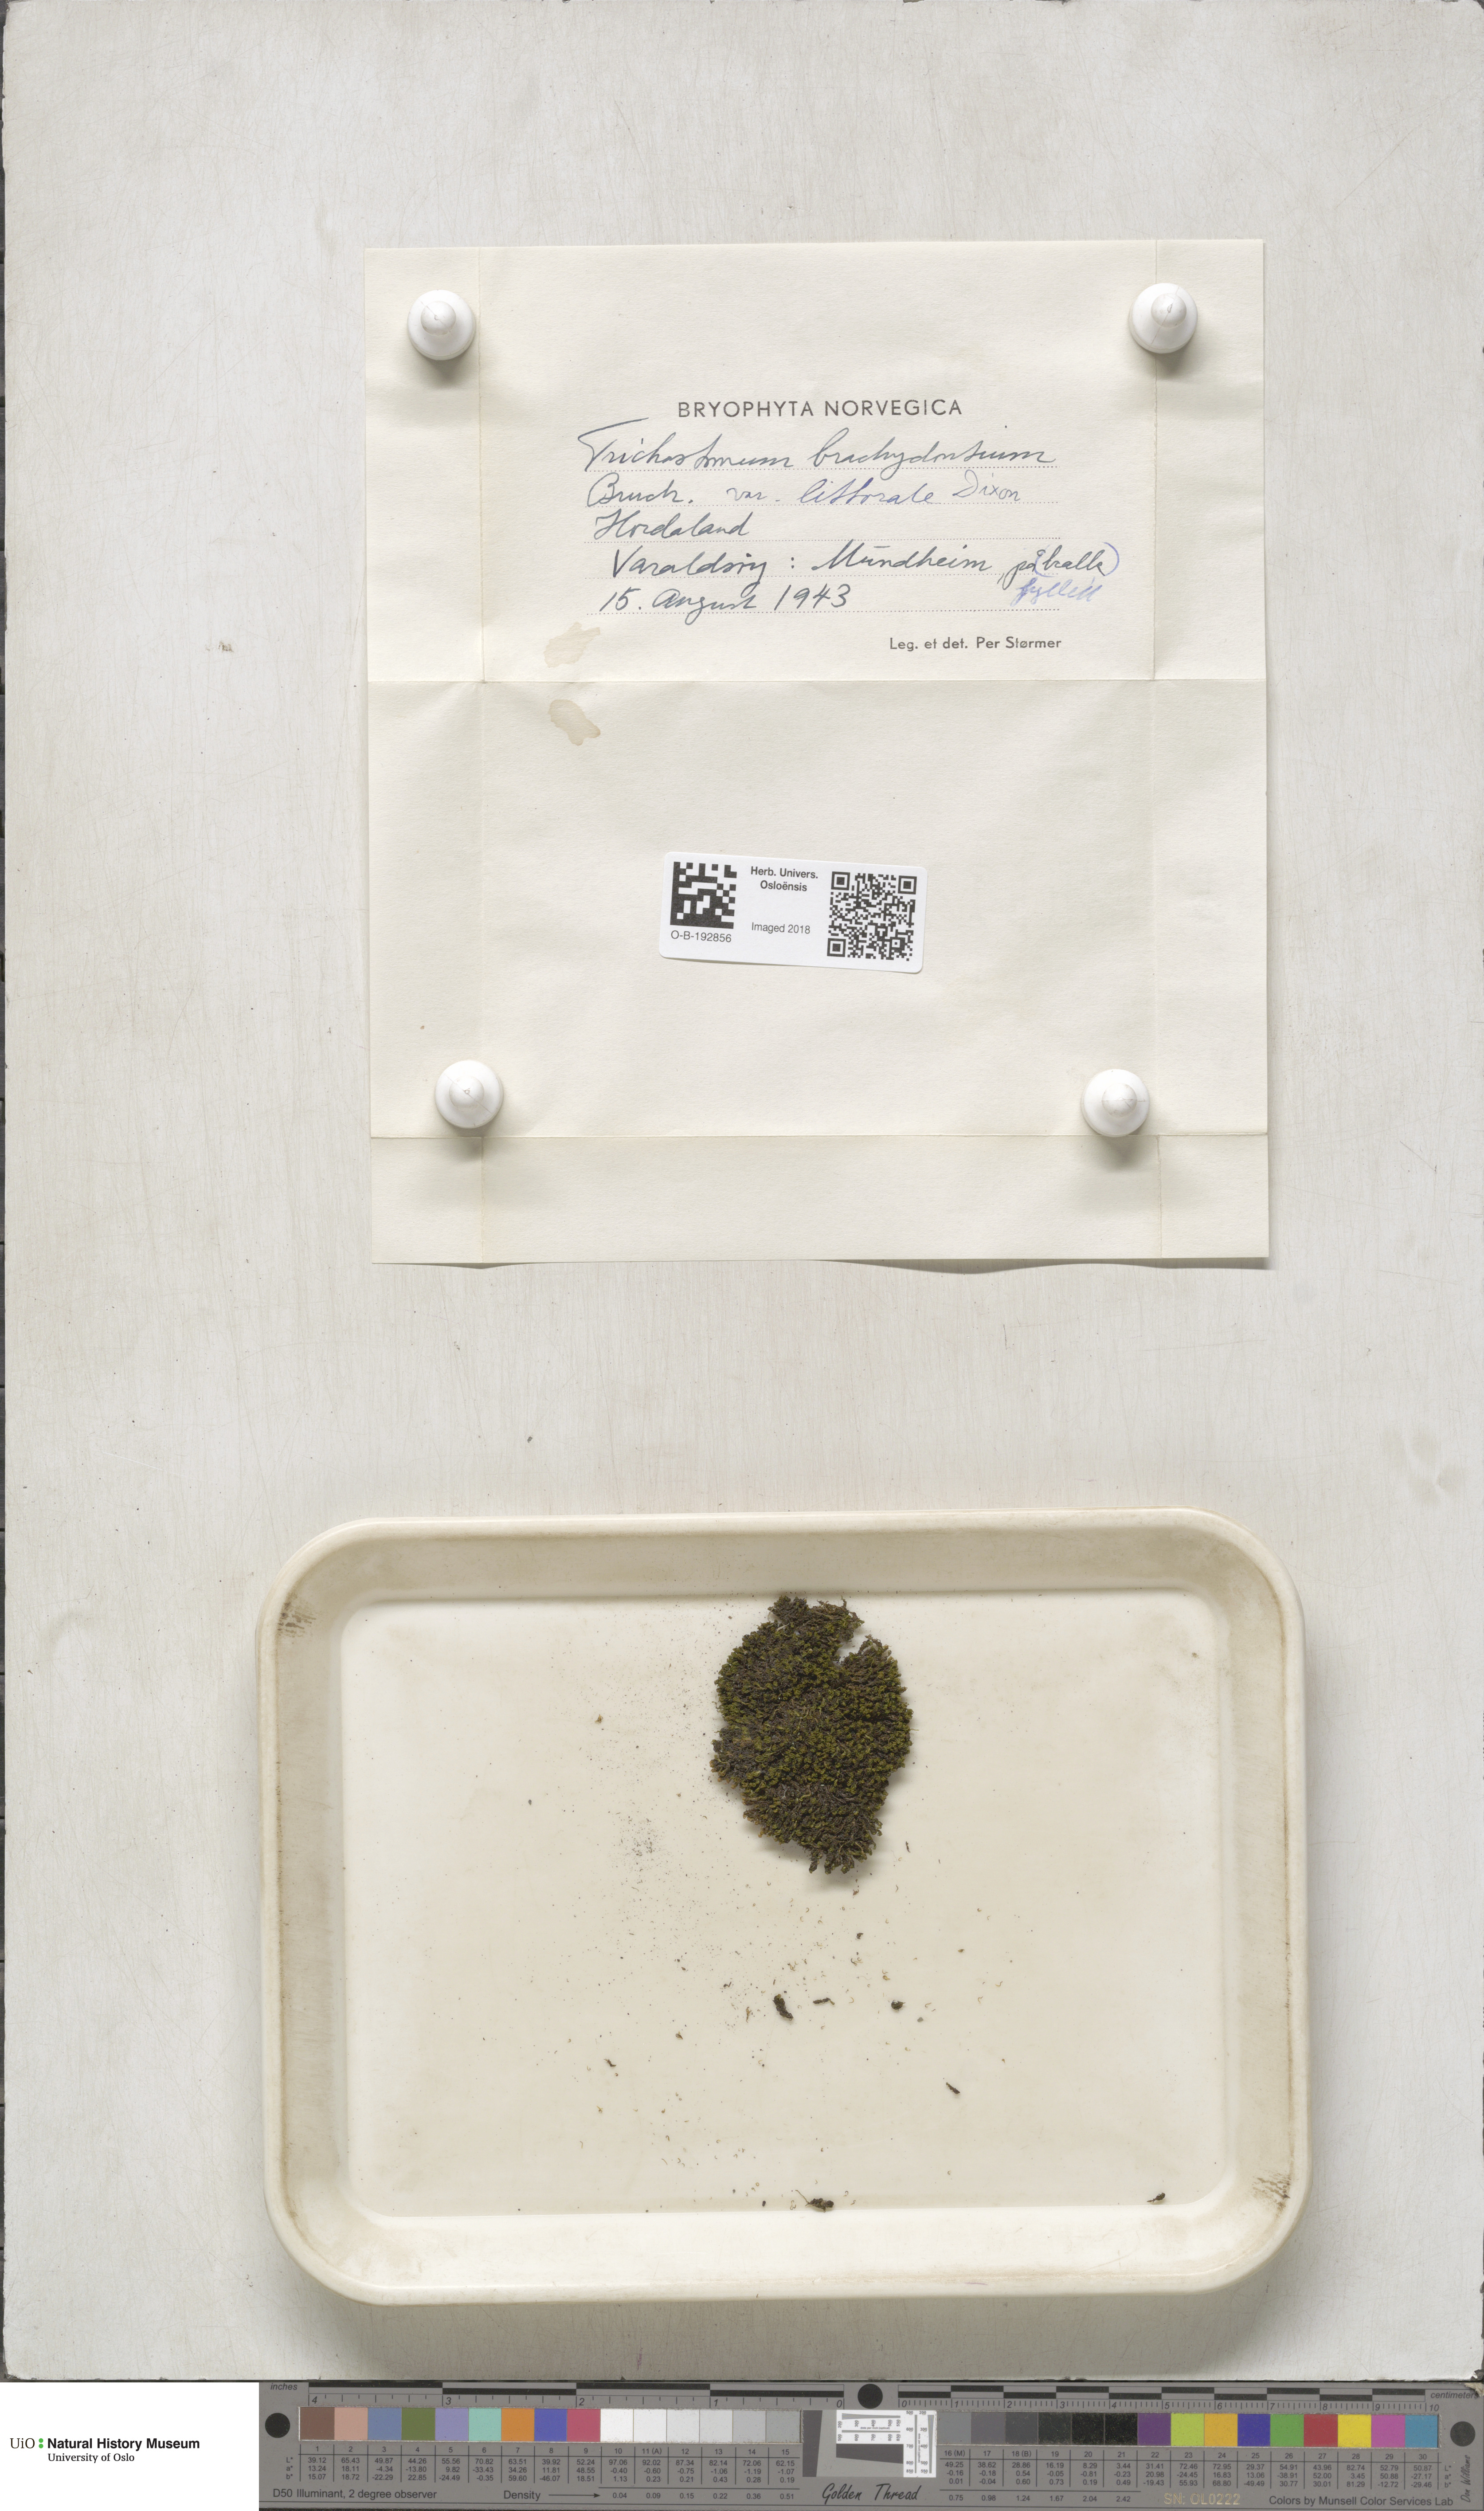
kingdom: Plantae
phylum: Bryophyta
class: Bryopsida
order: Pottiales
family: Pottiaceae
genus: Trichostomum
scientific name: Trichostomum brachydontium
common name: Variable crisp-moss
